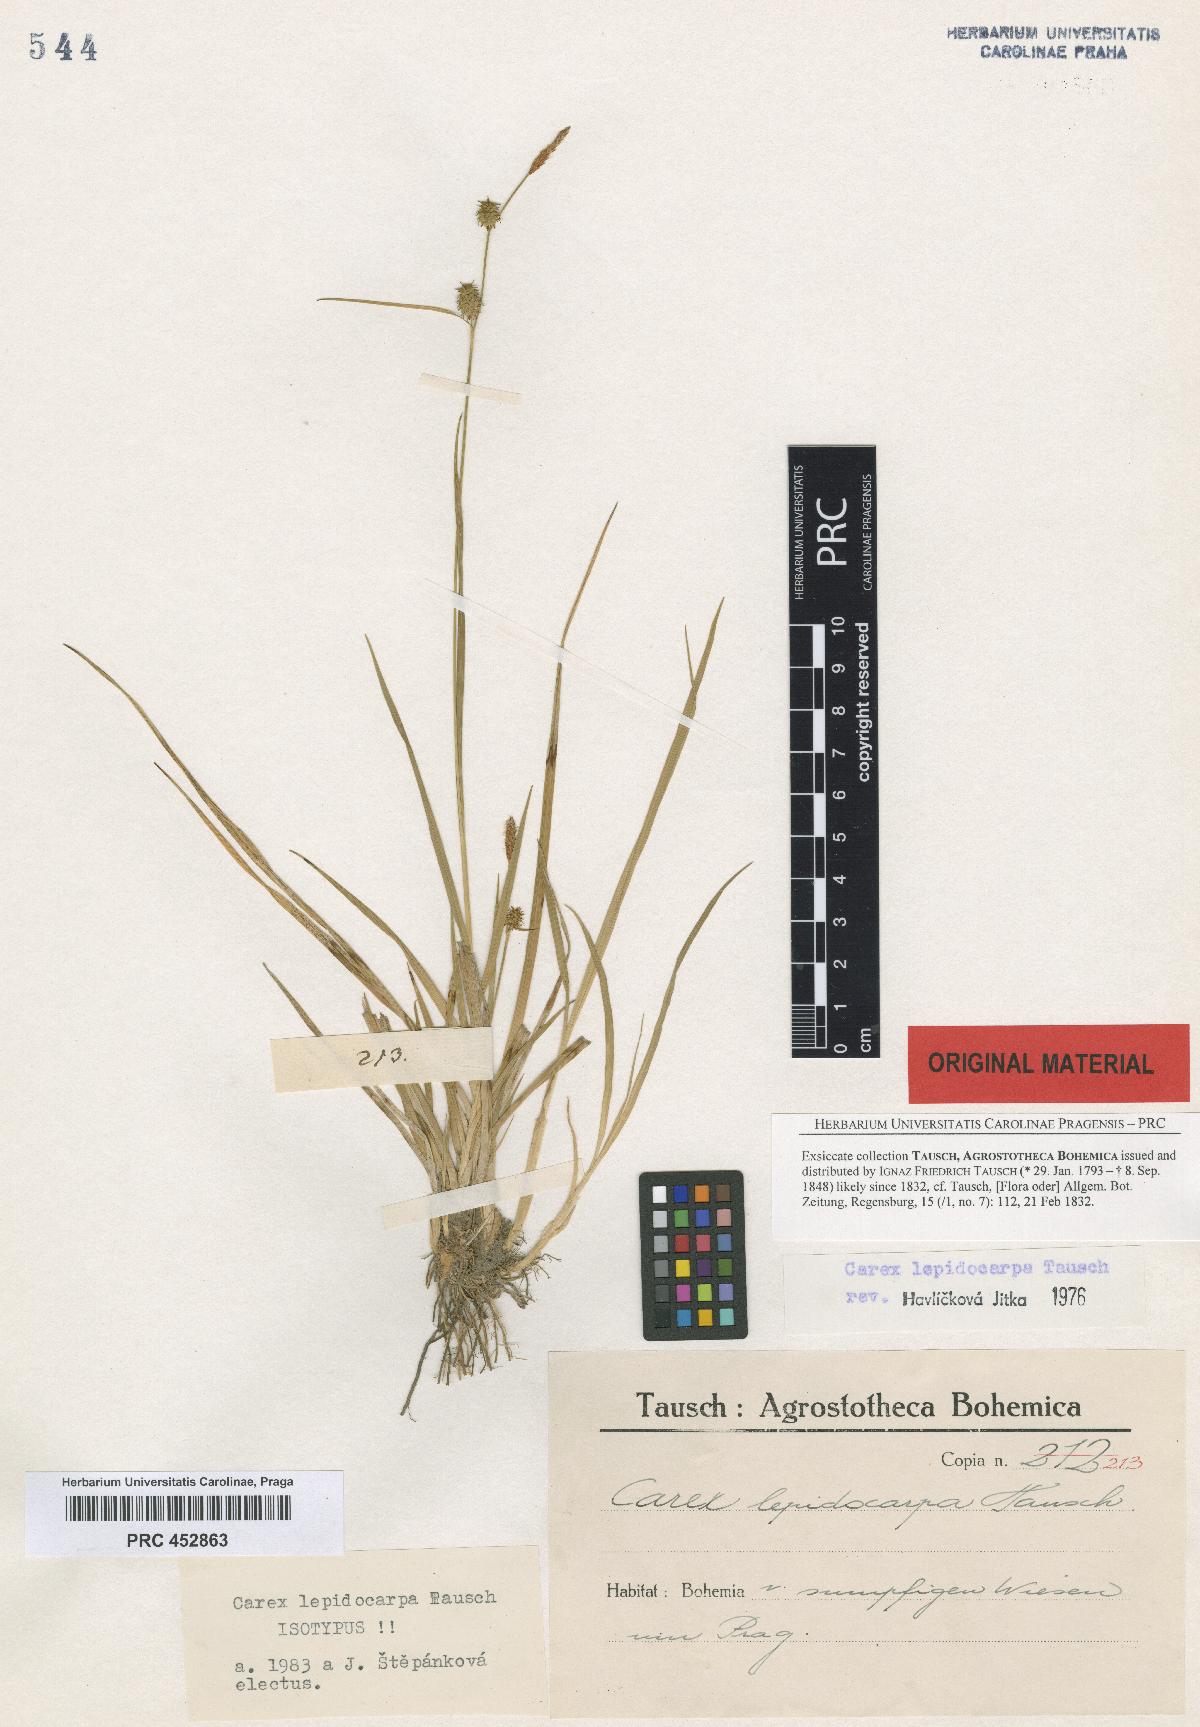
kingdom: Plantae
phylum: Tracheophyta
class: Liliopsida
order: Poales
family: Cyperaceae
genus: Carex
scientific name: Carex lepidocarpa
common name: Long-stalked yellow-sedge
